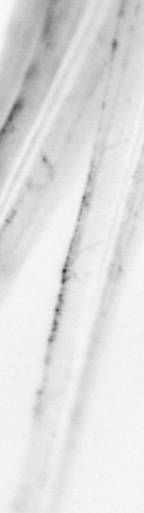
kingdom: Animalia
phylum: Chordata
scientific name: Chordata
